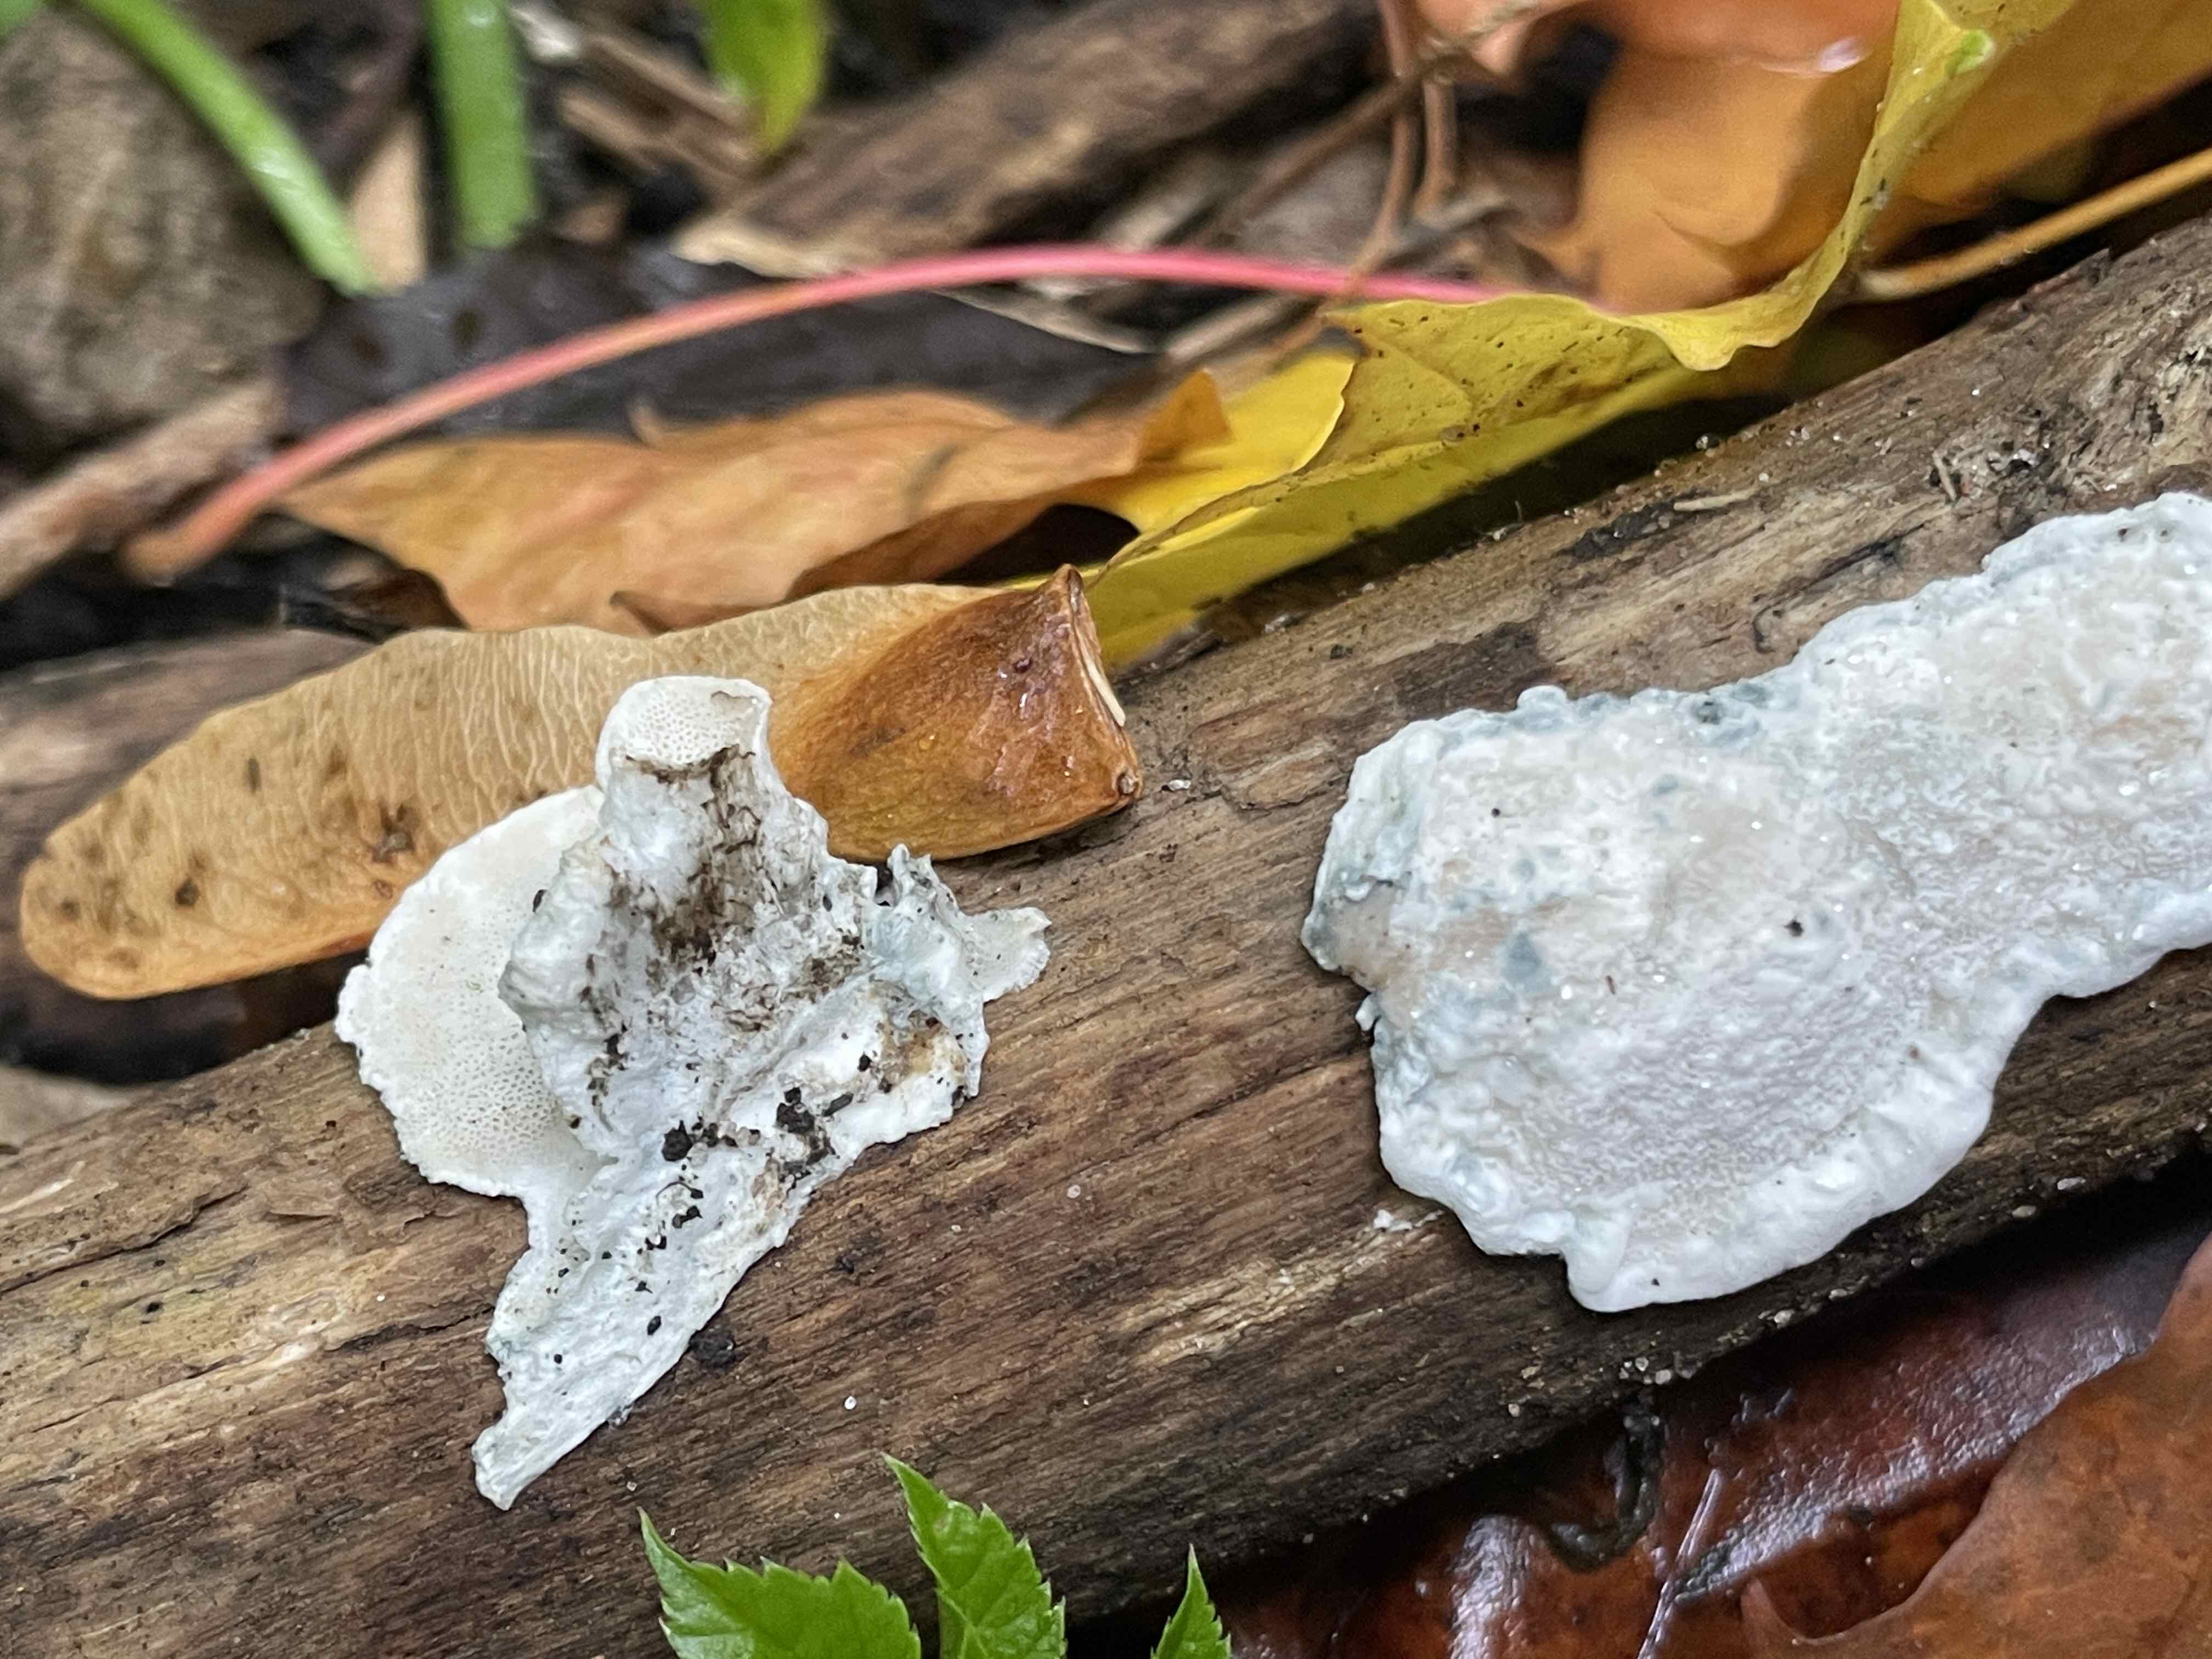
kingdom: Fungi
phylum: Basidiomycota
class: Agaricomycetes
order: Polyporales
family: Polyporaceae
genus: Cyanosporus
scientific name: Cyanosporus alni
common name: blegblå kødporesvamp
